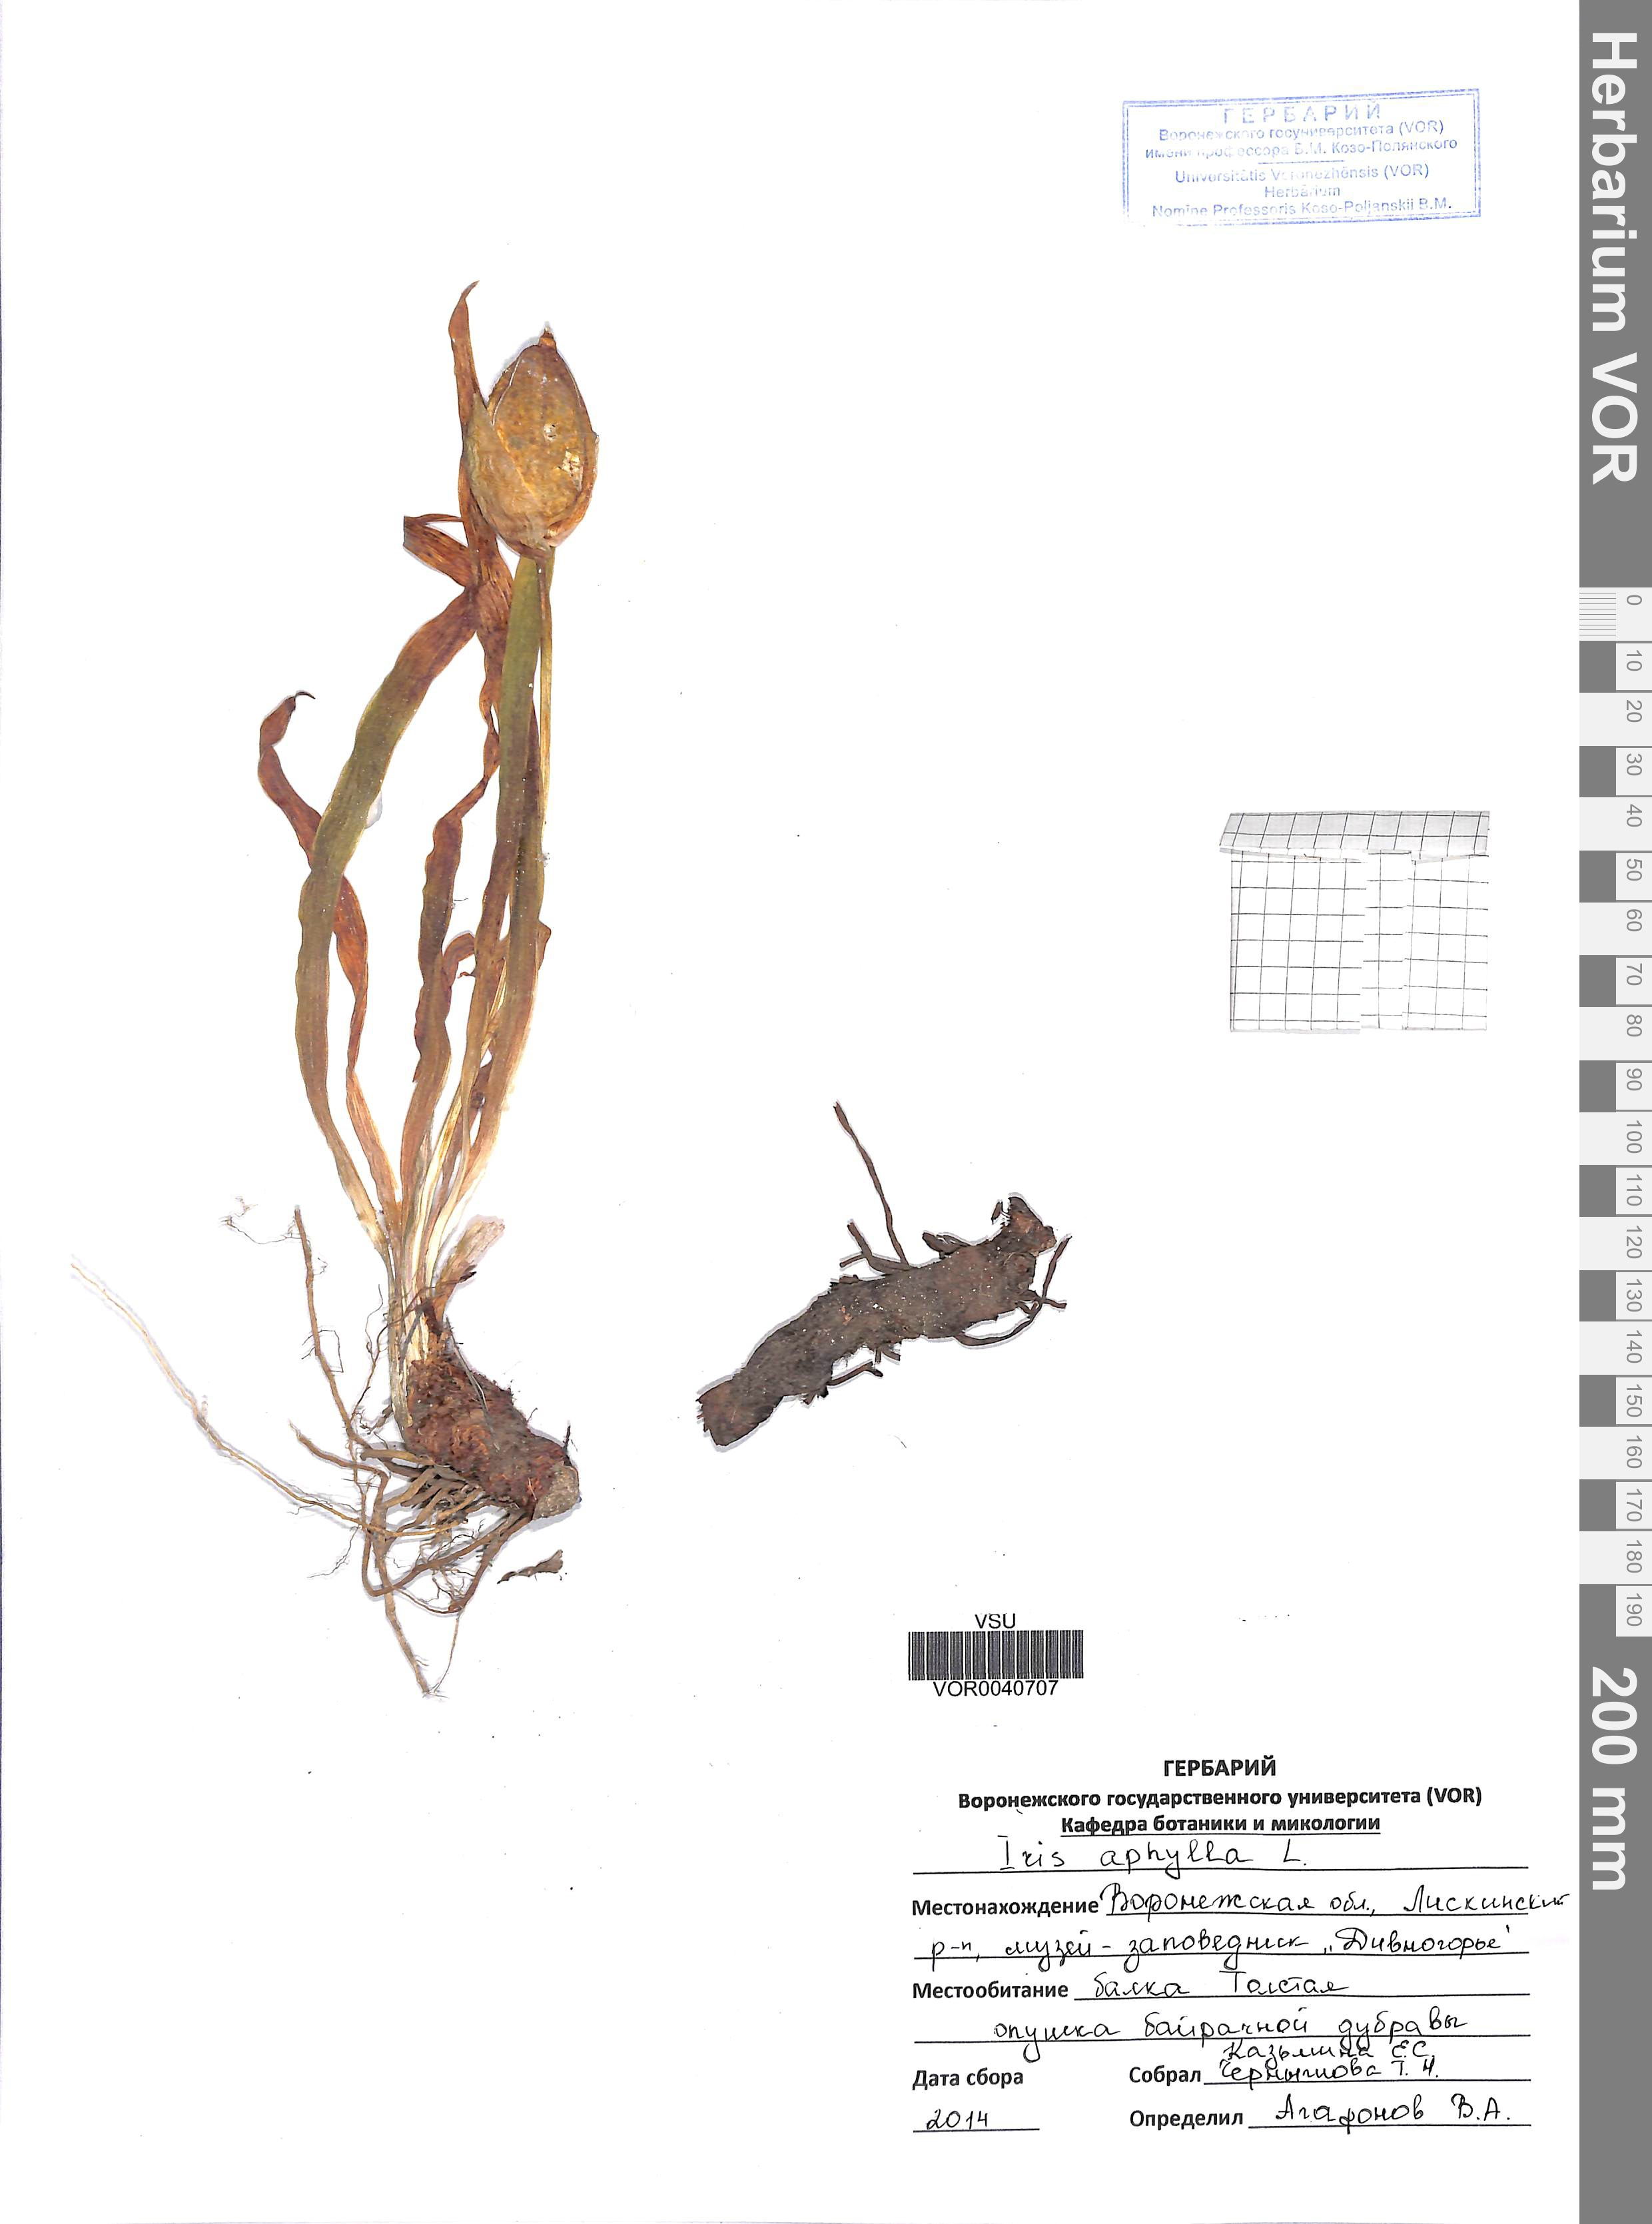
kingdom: Plantae
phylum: Tracheophyta
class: Liliopsida
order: Asparagales
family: Iridaceae
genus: Iris
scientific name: Iris aphylla
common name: Stool iris
